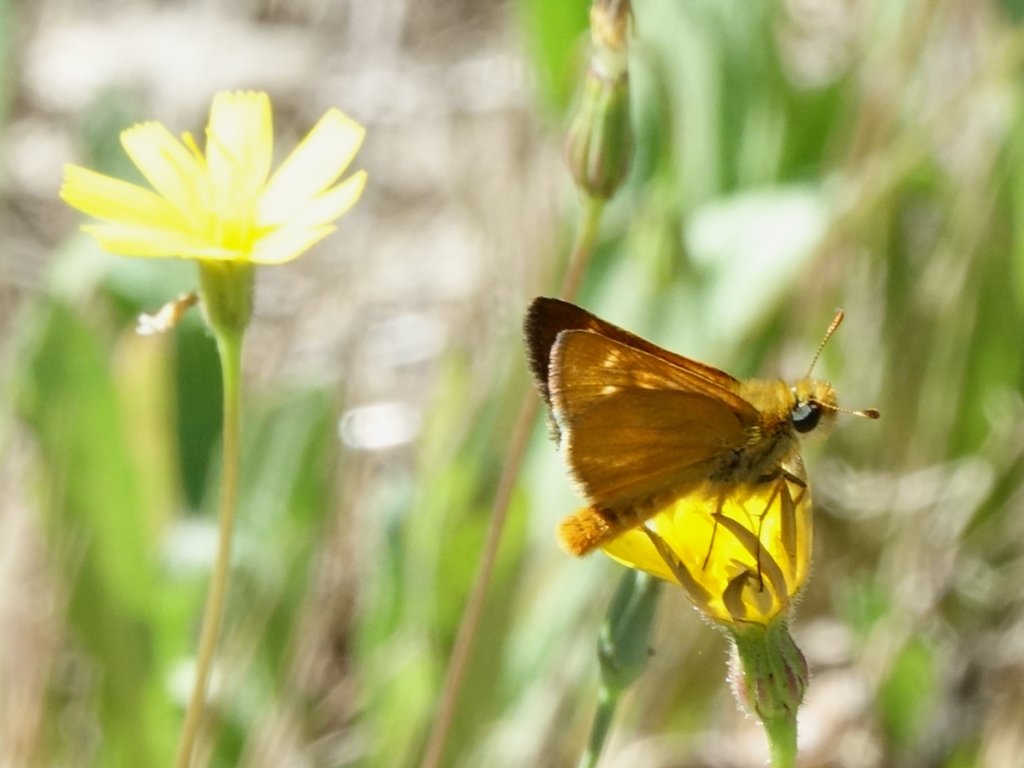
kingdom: Animalia
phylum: Arthropoda
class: Insecta
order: Lepidoptera
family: Hesperiidae
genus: Ochlodes
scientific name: Ochlodes agricola
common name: Rural Skipper
